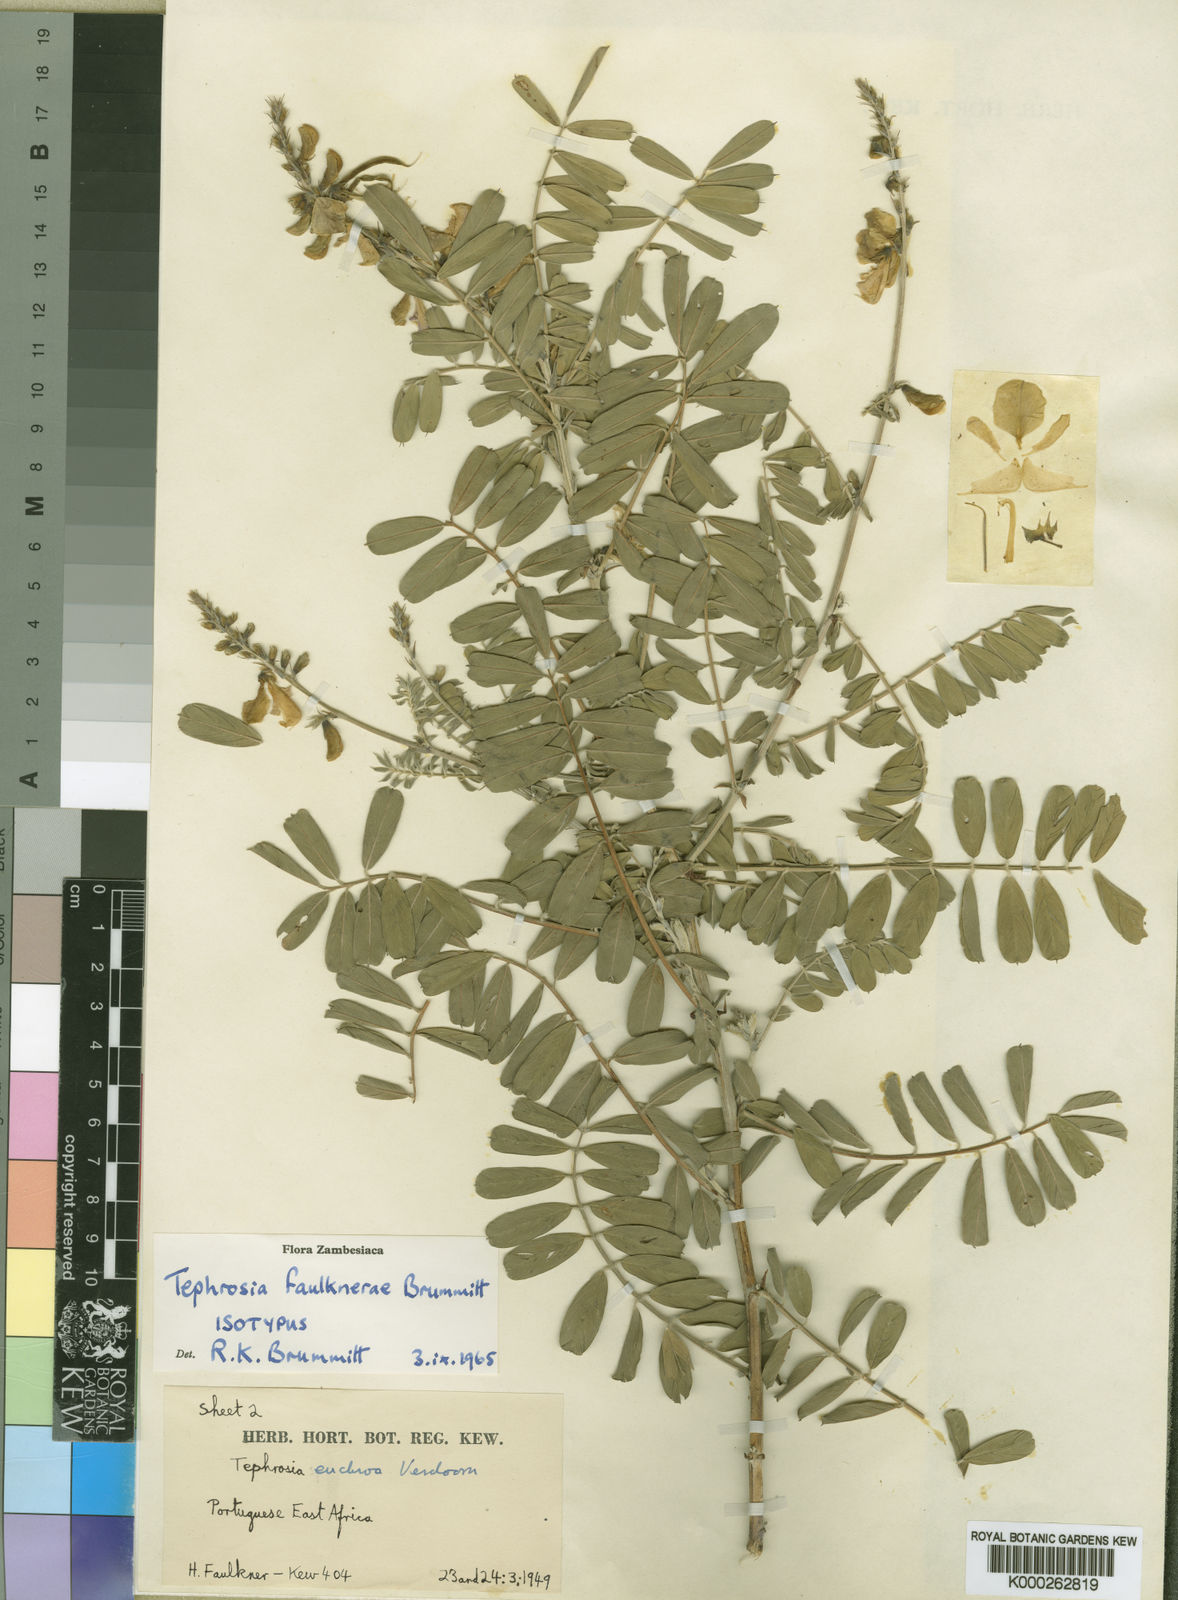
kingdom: Plantae
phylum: Tracheophyta
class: Magnoliopsida
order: Fabales
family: Fabaceae
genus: Tephrosia
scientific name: Tephrosia faulknerae
